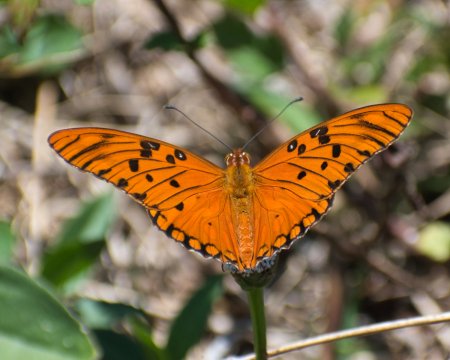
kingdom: Animalia
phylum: Arthropoda
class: Insecta
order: Lepidoptera
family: Nymphalidae
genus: Dione
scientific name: Dione vanillae
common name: Gulf Fritillary
